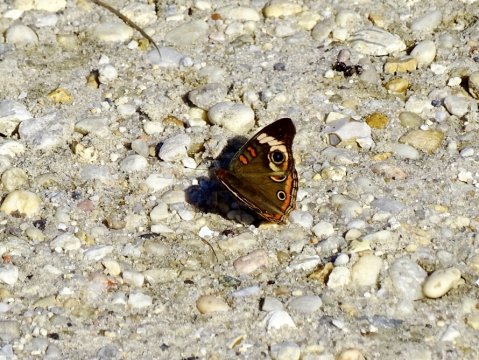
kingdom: Animalia
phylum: Arthropoda
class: Insecta
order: Lepidoptera
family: Nymphalidae
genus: Junonia
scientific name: Junonia coenia
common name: Common Buckeye
